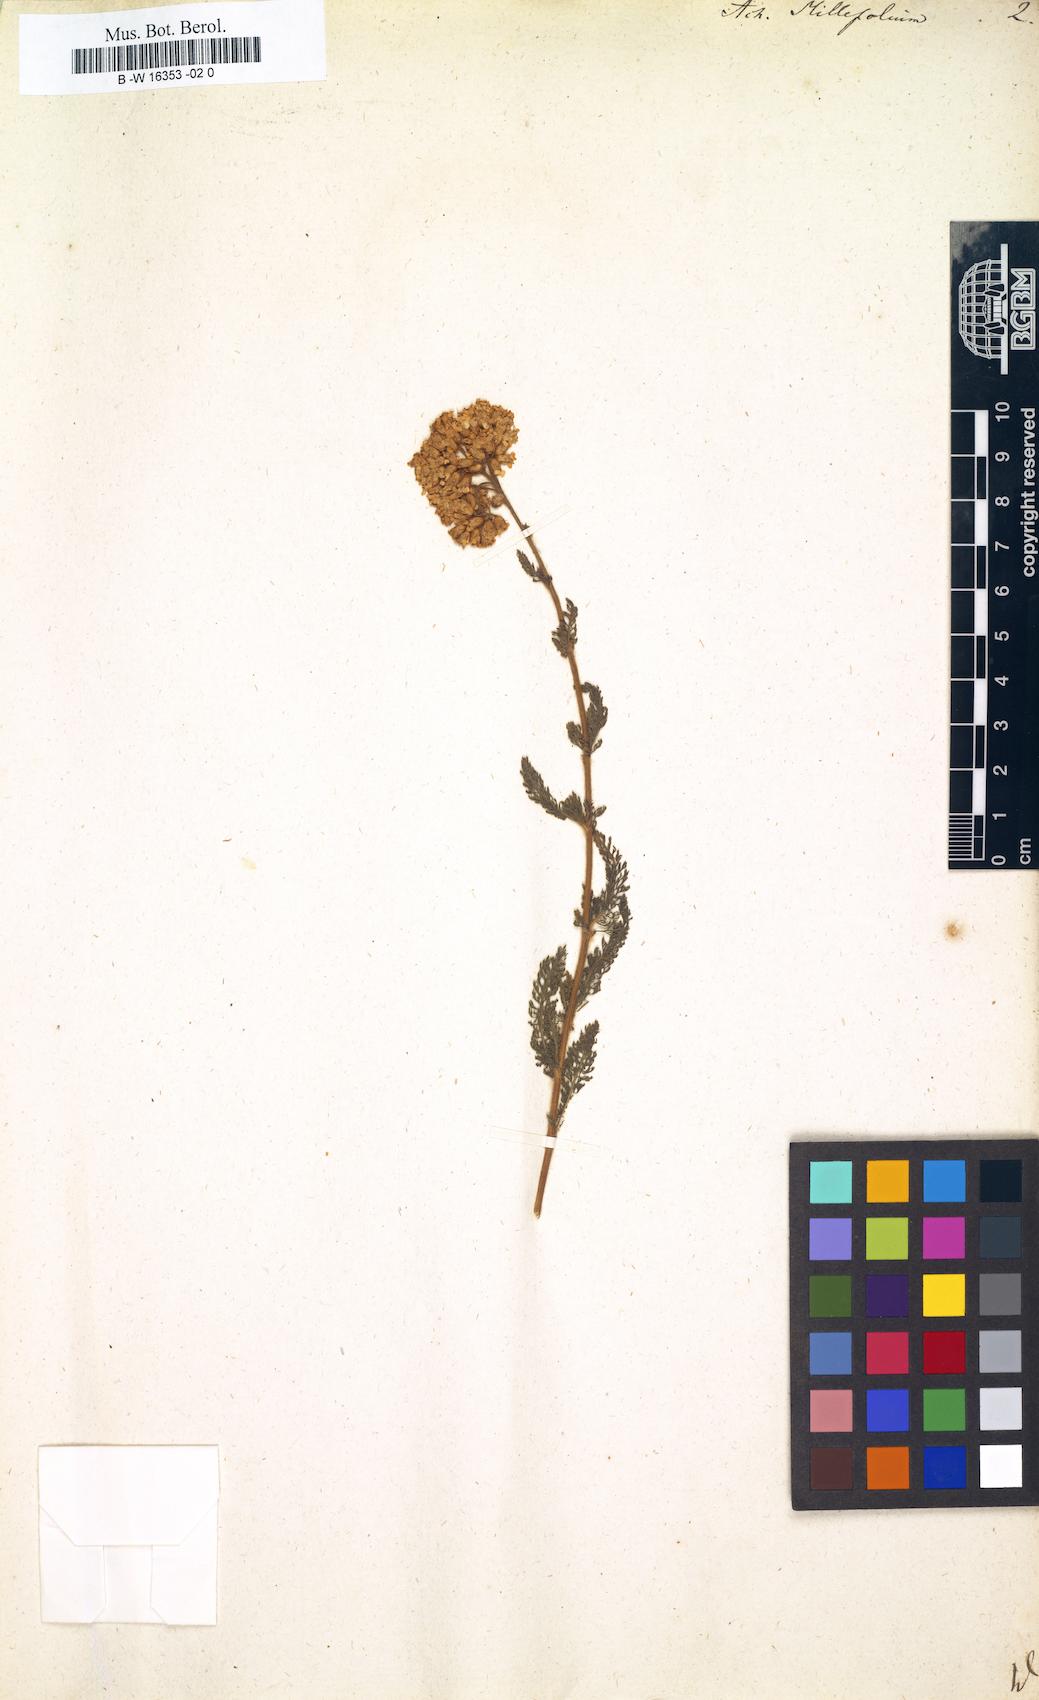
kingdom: Plantae
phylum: Tracheophyta
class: Magnoliopsida
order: Asterales
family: Asteraceae
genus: Achillea
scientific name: Achillea millefolium
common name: Yarrow
